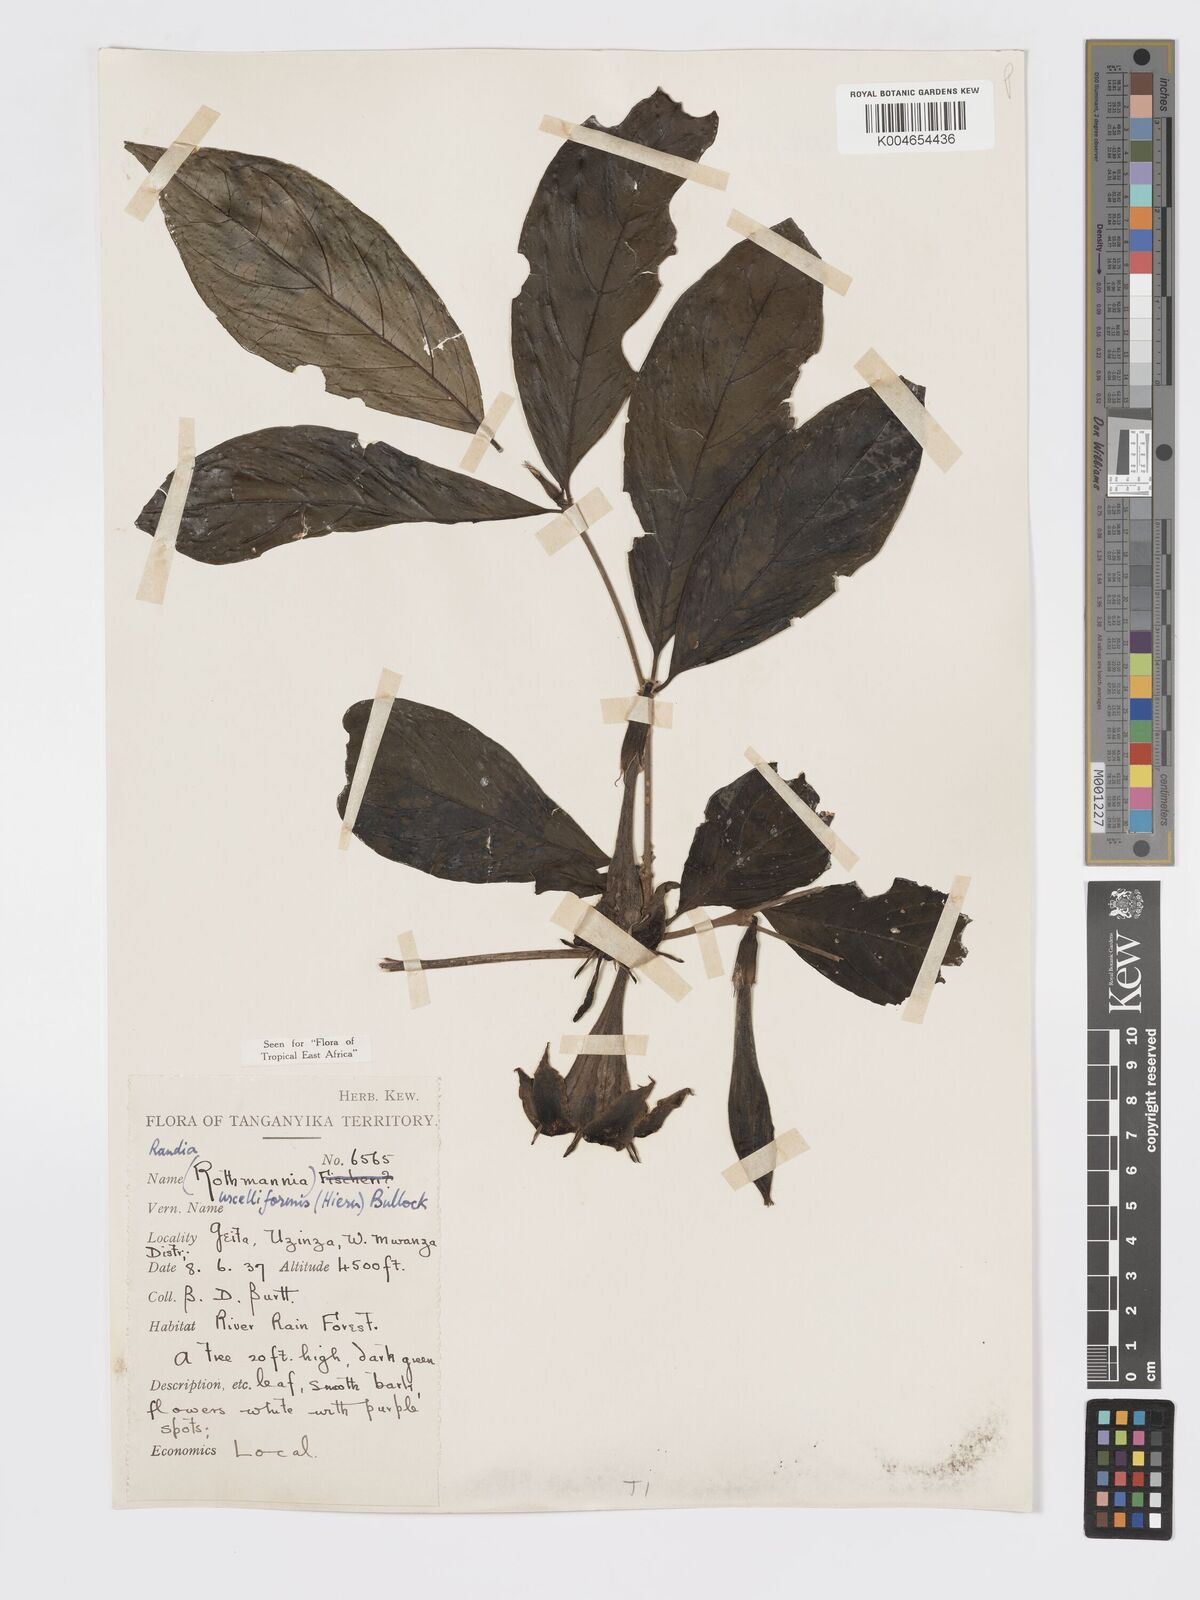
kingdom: Plantae
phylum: Tracheophyta
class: Magnoliopsida
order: Gentianales
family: Rubiaceae
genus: Rothmannia
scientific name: Rothmannia urcelliformis
